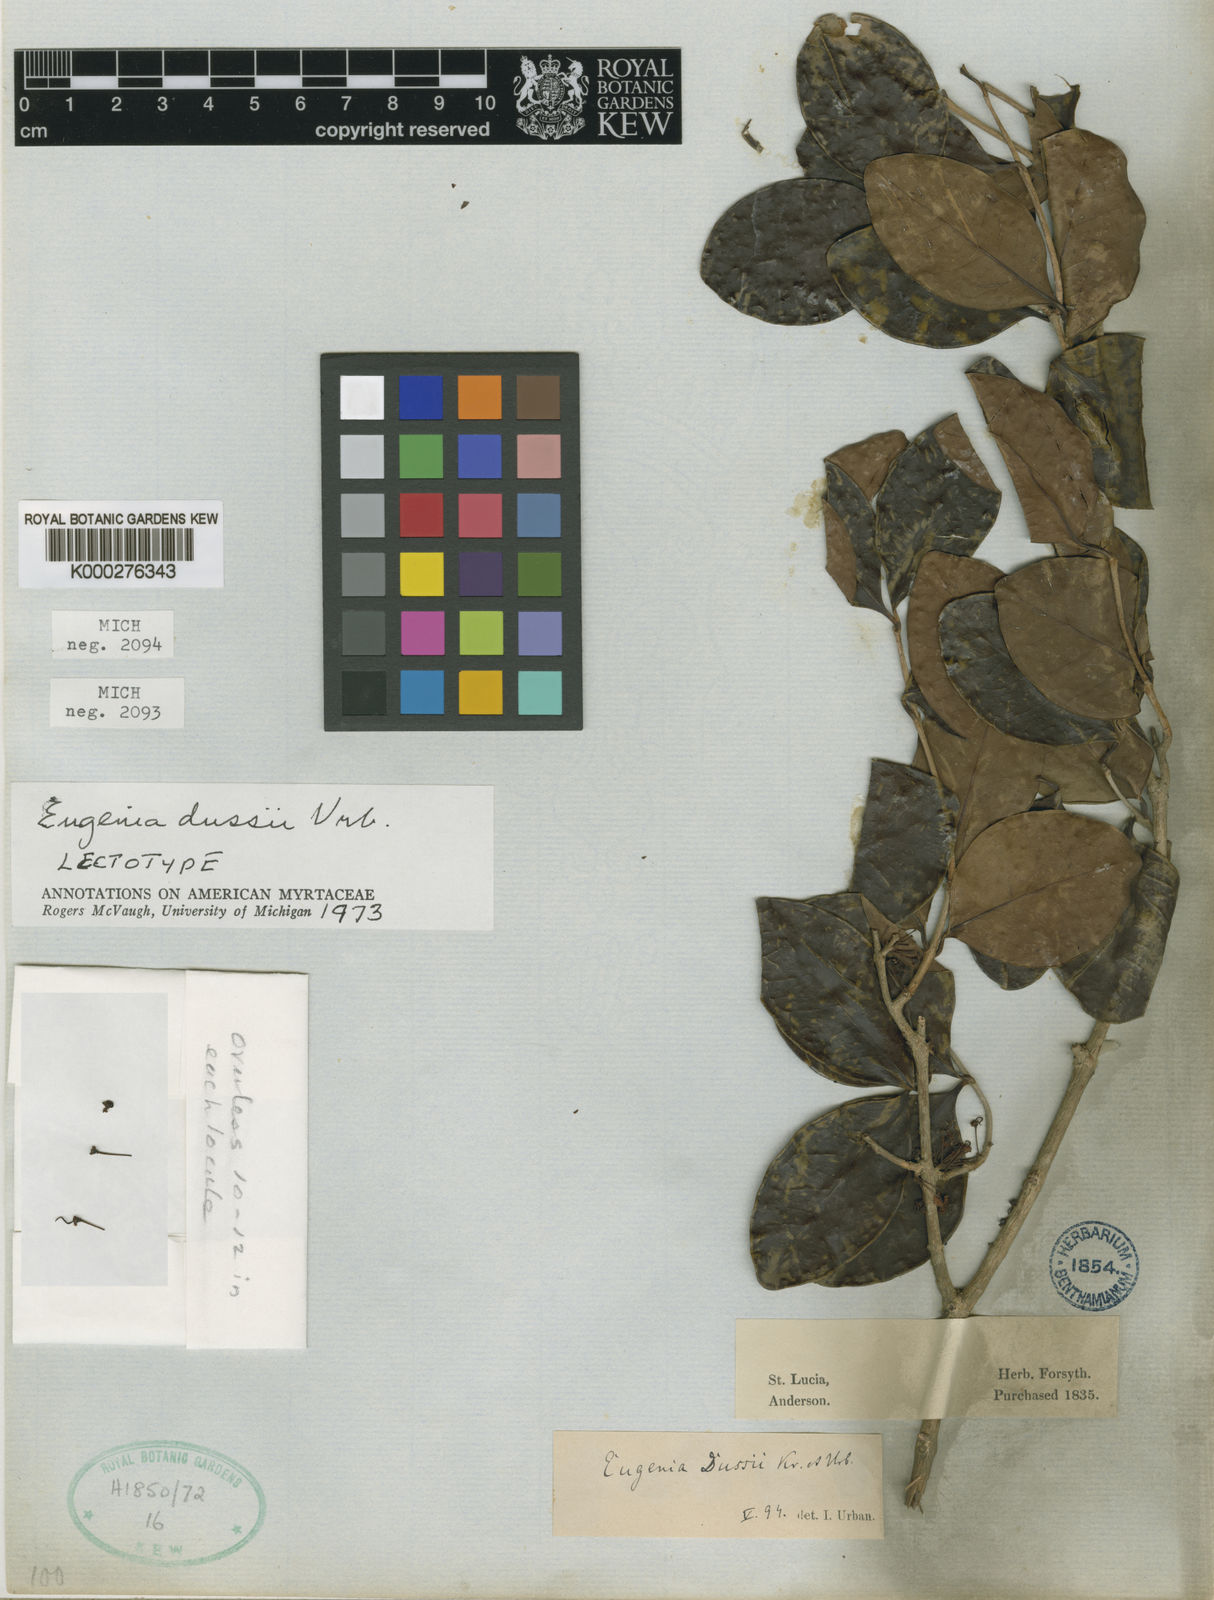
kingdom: Plantae
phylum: Tracheophyta
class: Magnoliopsida
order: Myrtales
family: Myrtaceae
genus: Myrcia
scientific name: Myrcia guianensis
